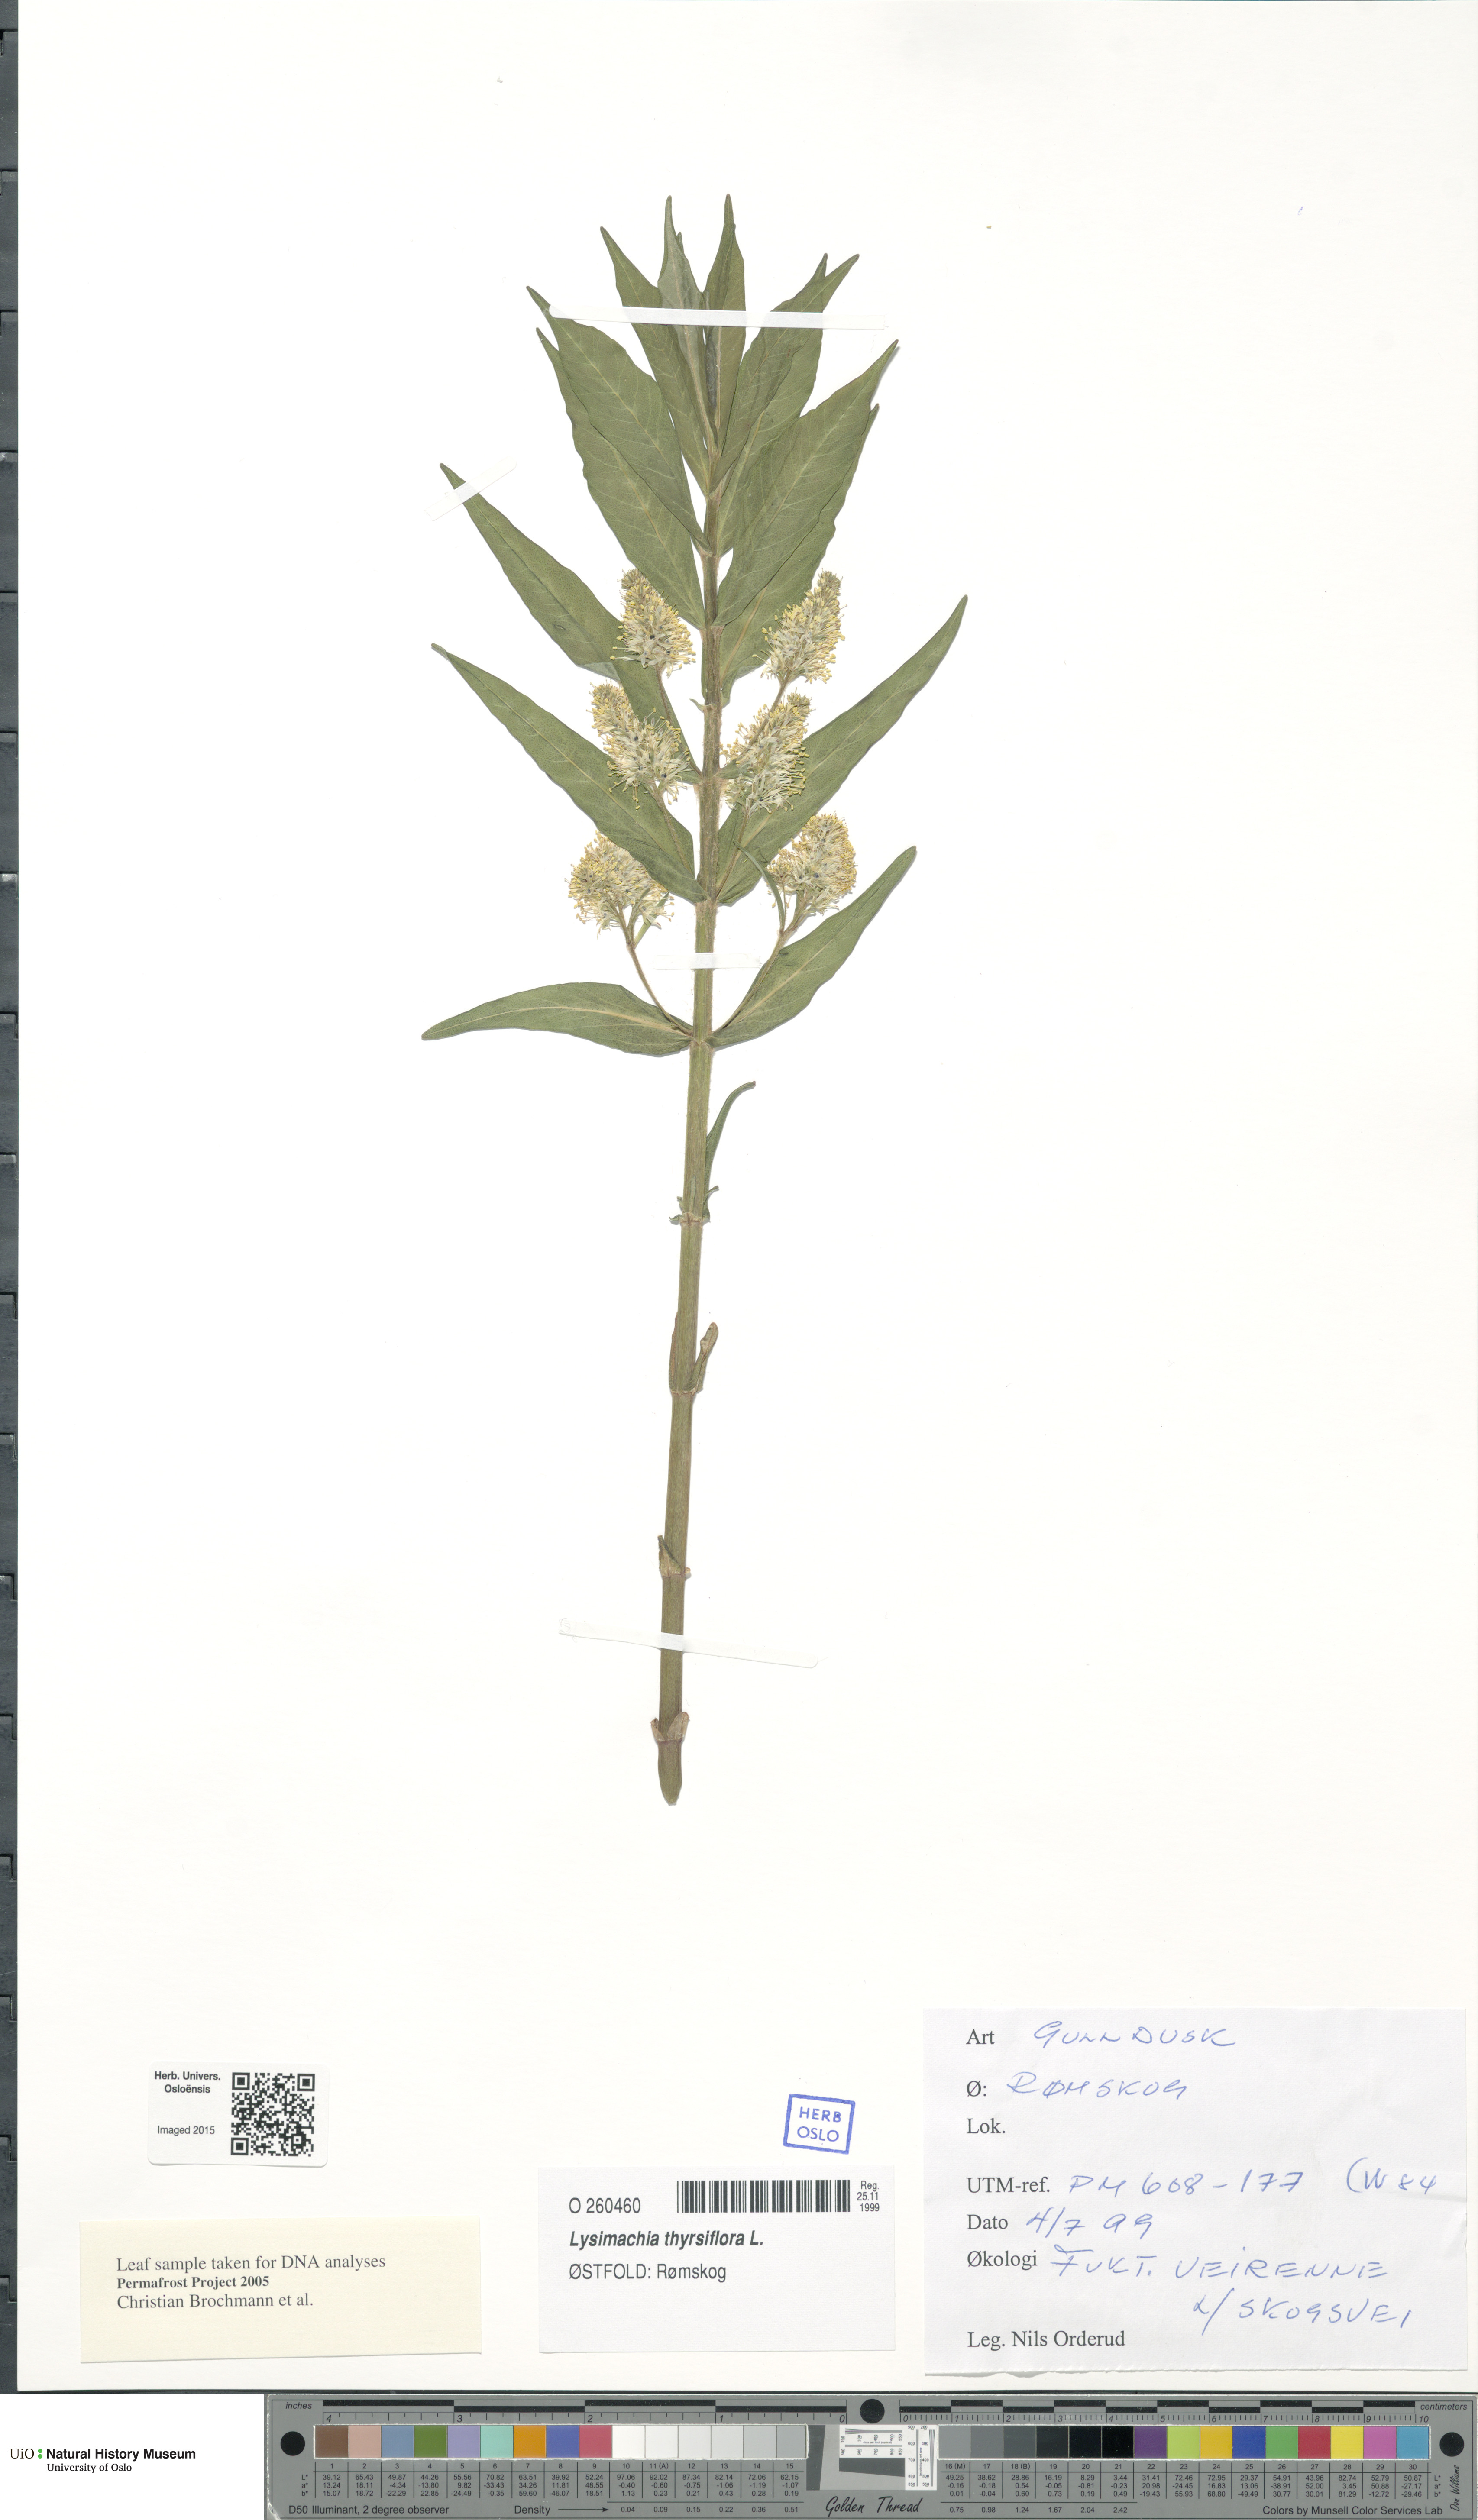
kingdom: Plantae
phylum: Tracheophyta
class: Magnoliopsida
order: Ericales
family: Primulaceae
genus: Lysimachia
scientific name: Lysimachia thyrsiflora
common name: Tufted loosestrife
